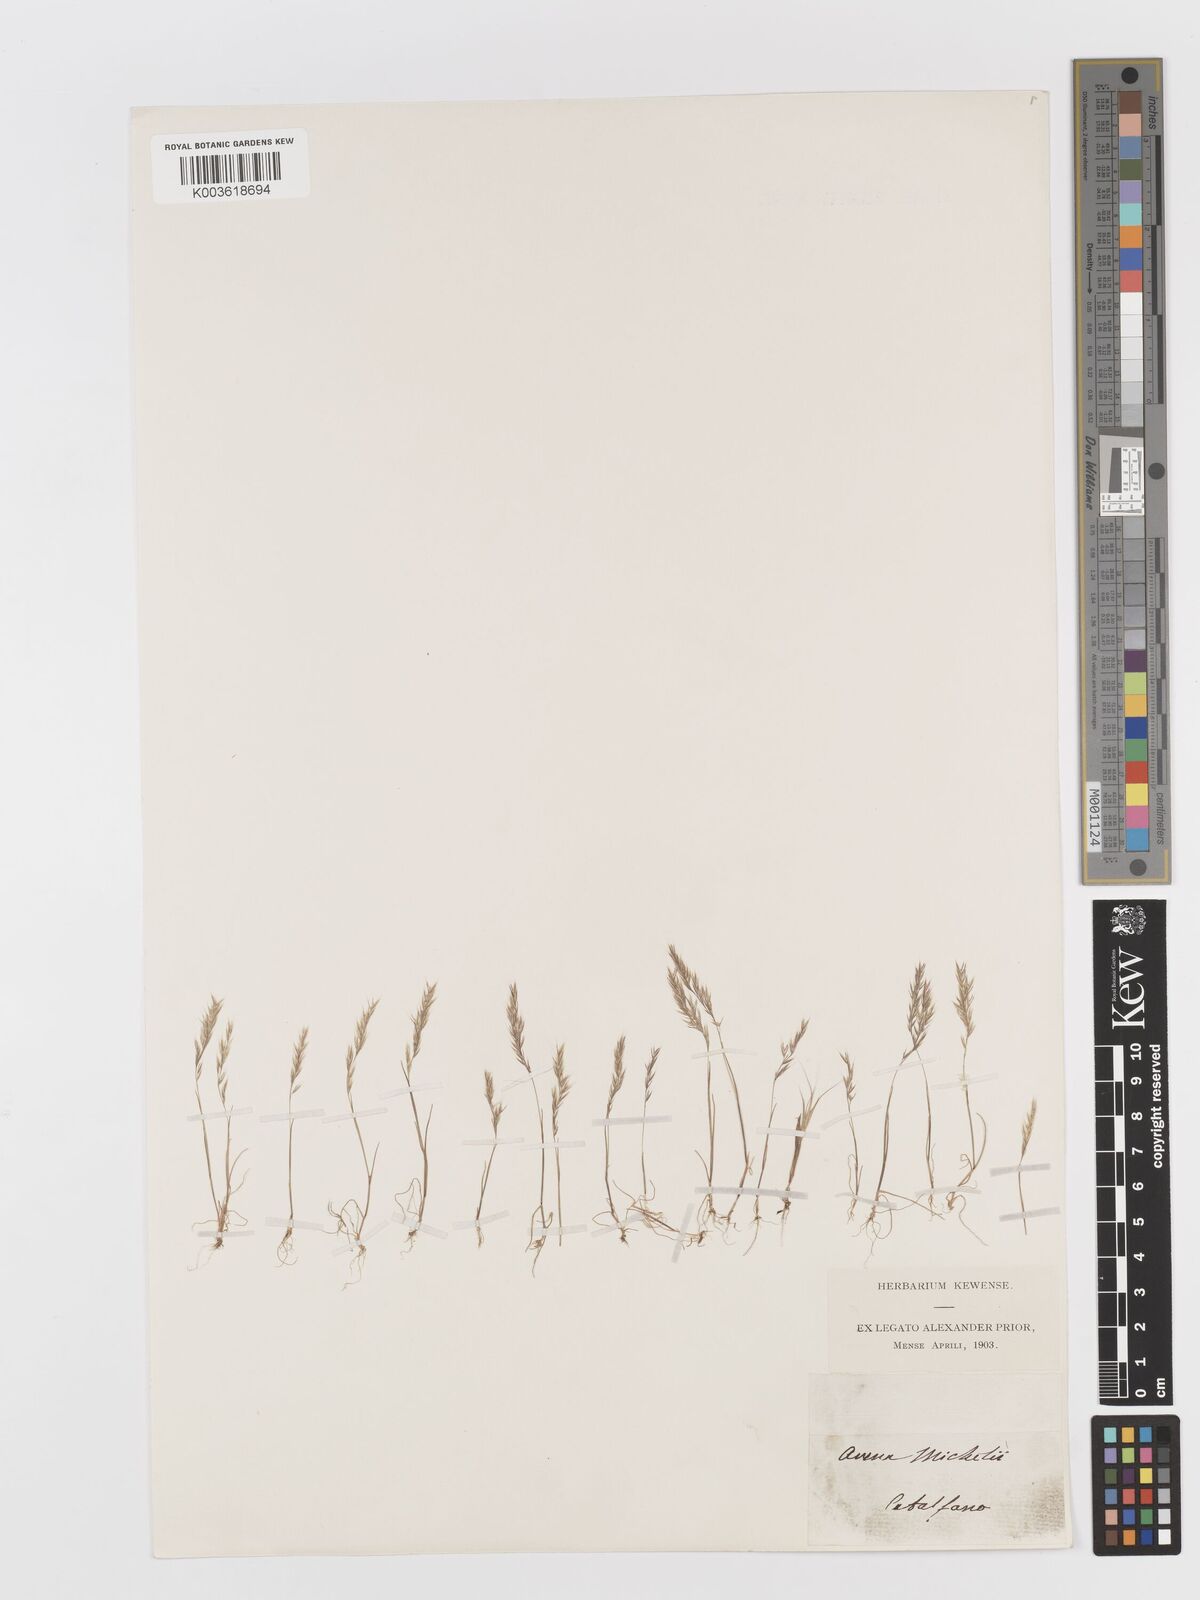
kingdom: Plantae
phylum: Tracheophyta
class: Liliopsida
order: Poales
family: Poaceae
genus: Avellinia
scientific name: Avellinia festucoides
